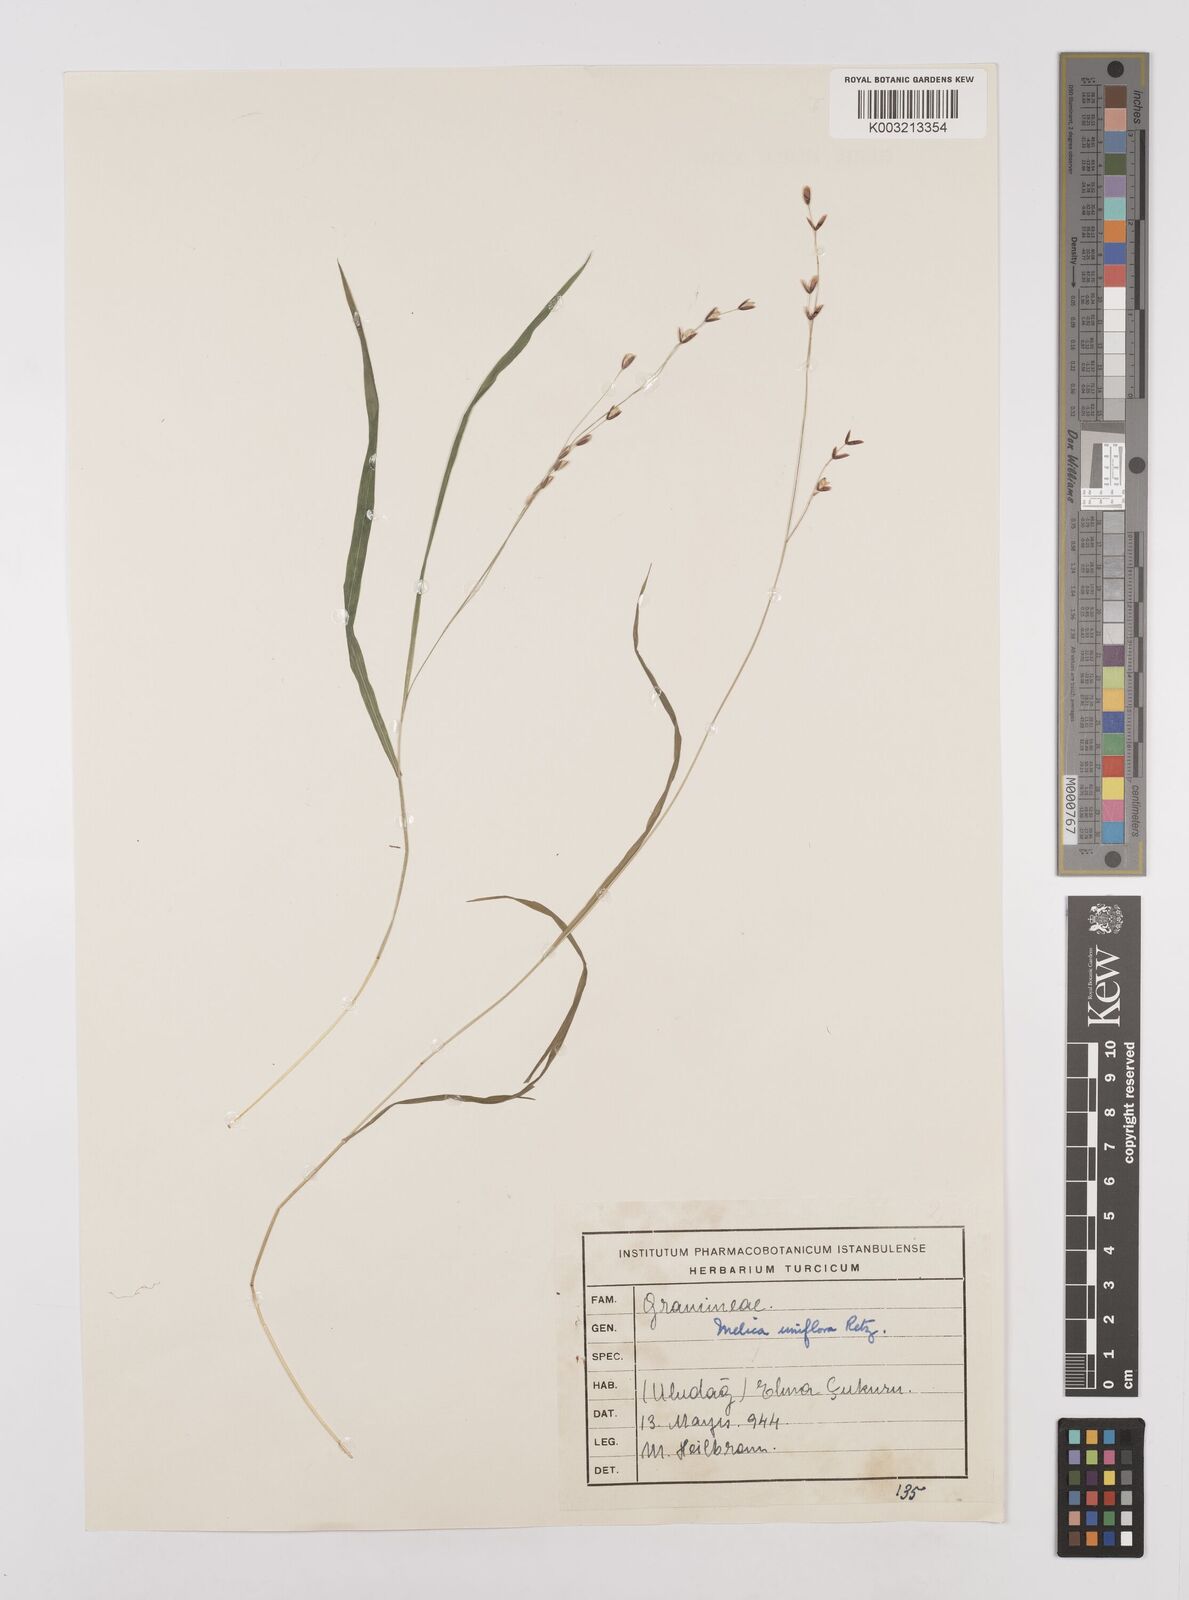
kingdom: Plantae
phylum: Tracheophyta
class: Liliopsida
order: Poales
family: Poaceae
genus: Melica
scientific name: Melica uniflora
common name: Wood melick
